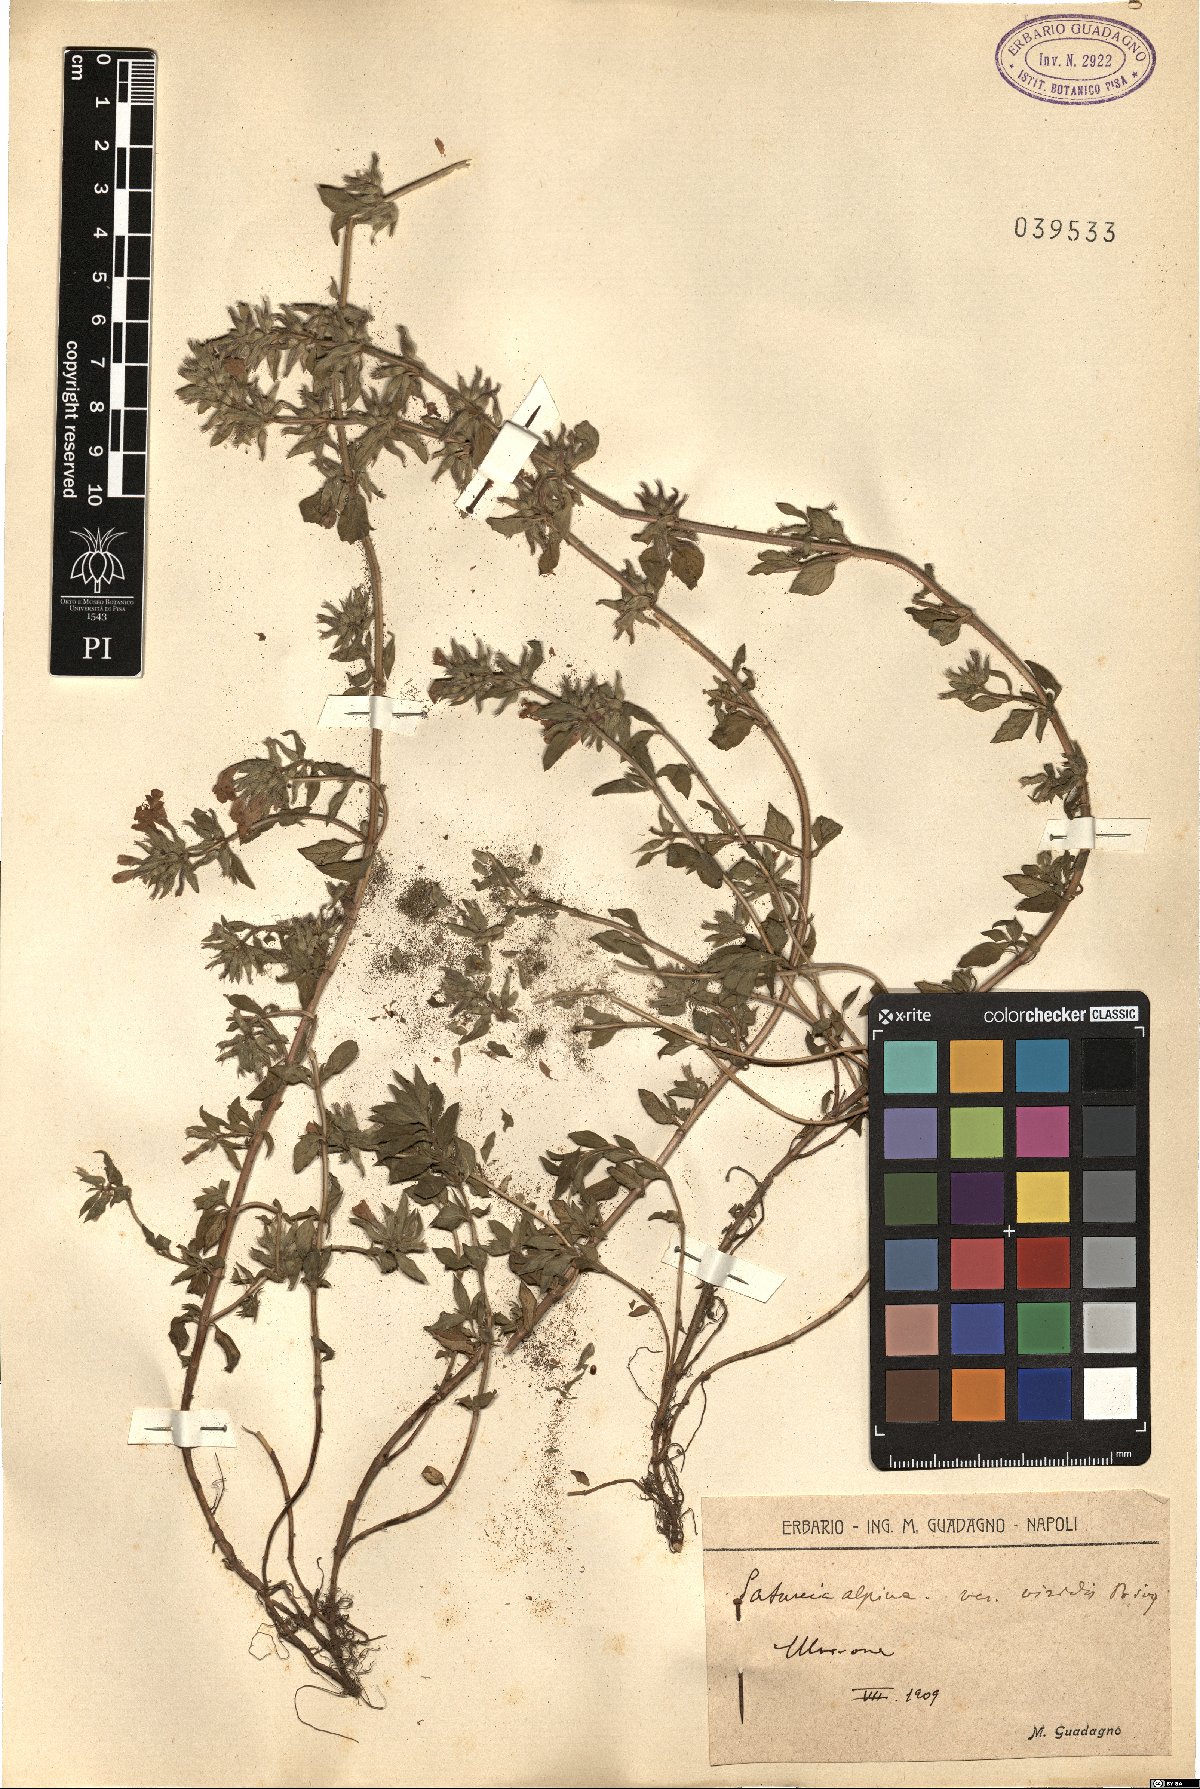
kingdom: Plantae
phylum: Tracheophyta
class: Magnoliopsida
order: Lamiales
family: Lamiaceae
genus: Clinopodium
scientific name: Clinopodium suaveolens
